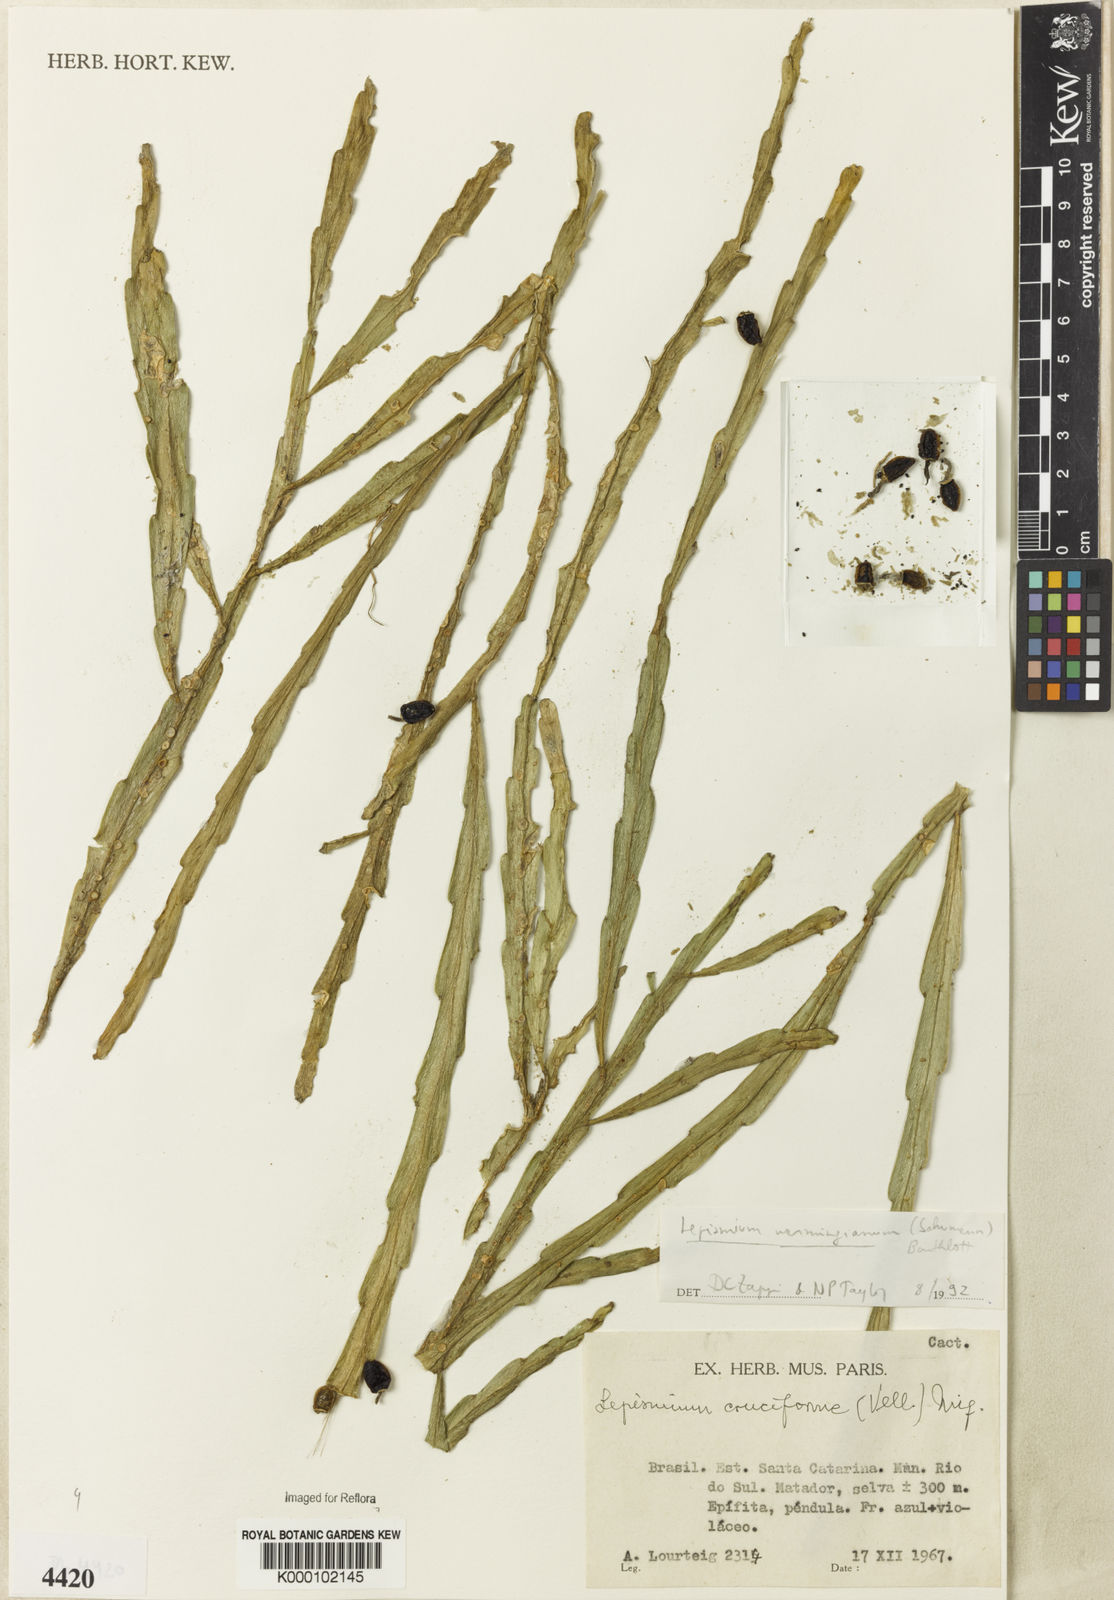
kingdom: Plantae
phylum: Tracheophyta
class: Magnoliopsida
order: Caryophyllales
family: Cactaceae
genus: Lepismium
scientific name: Lepismium warmingianum
